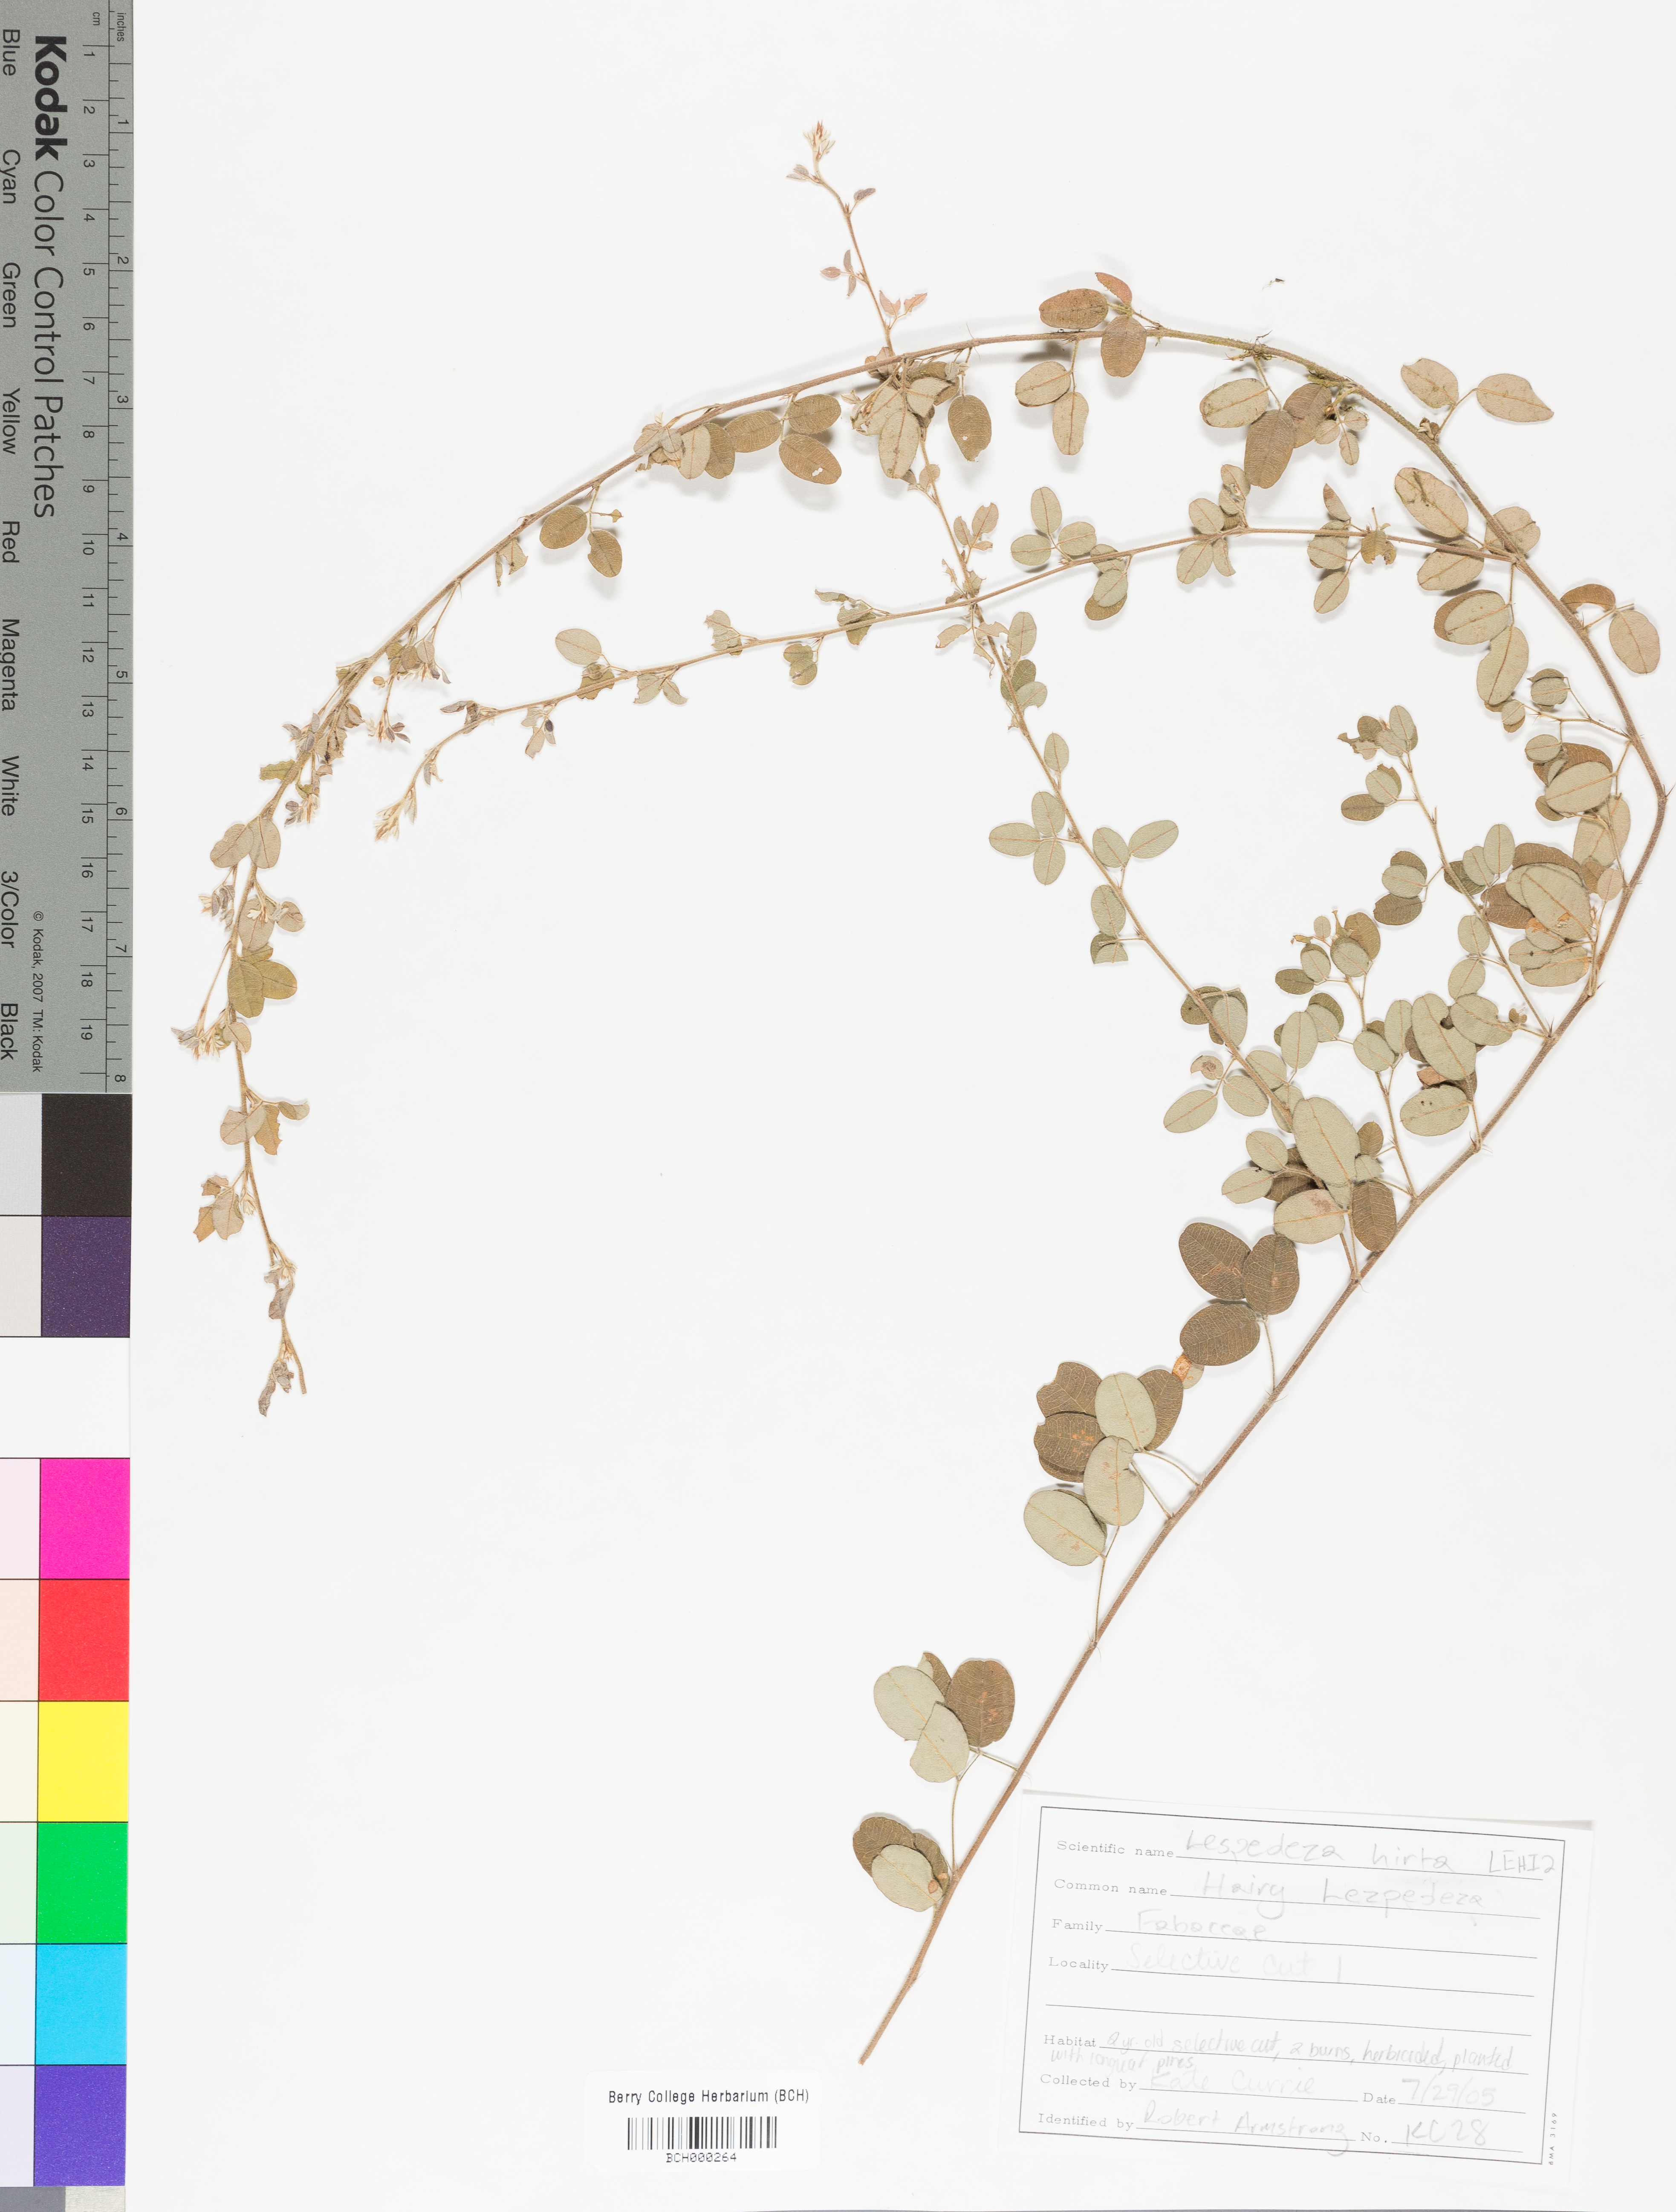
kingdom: Plantae
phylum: Tracheophyta
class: Magnoliopsida
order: Fabales
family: Fabaceae
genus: Lespedeza
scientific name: Lespedeza hirta
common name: Hairy lespedeza
